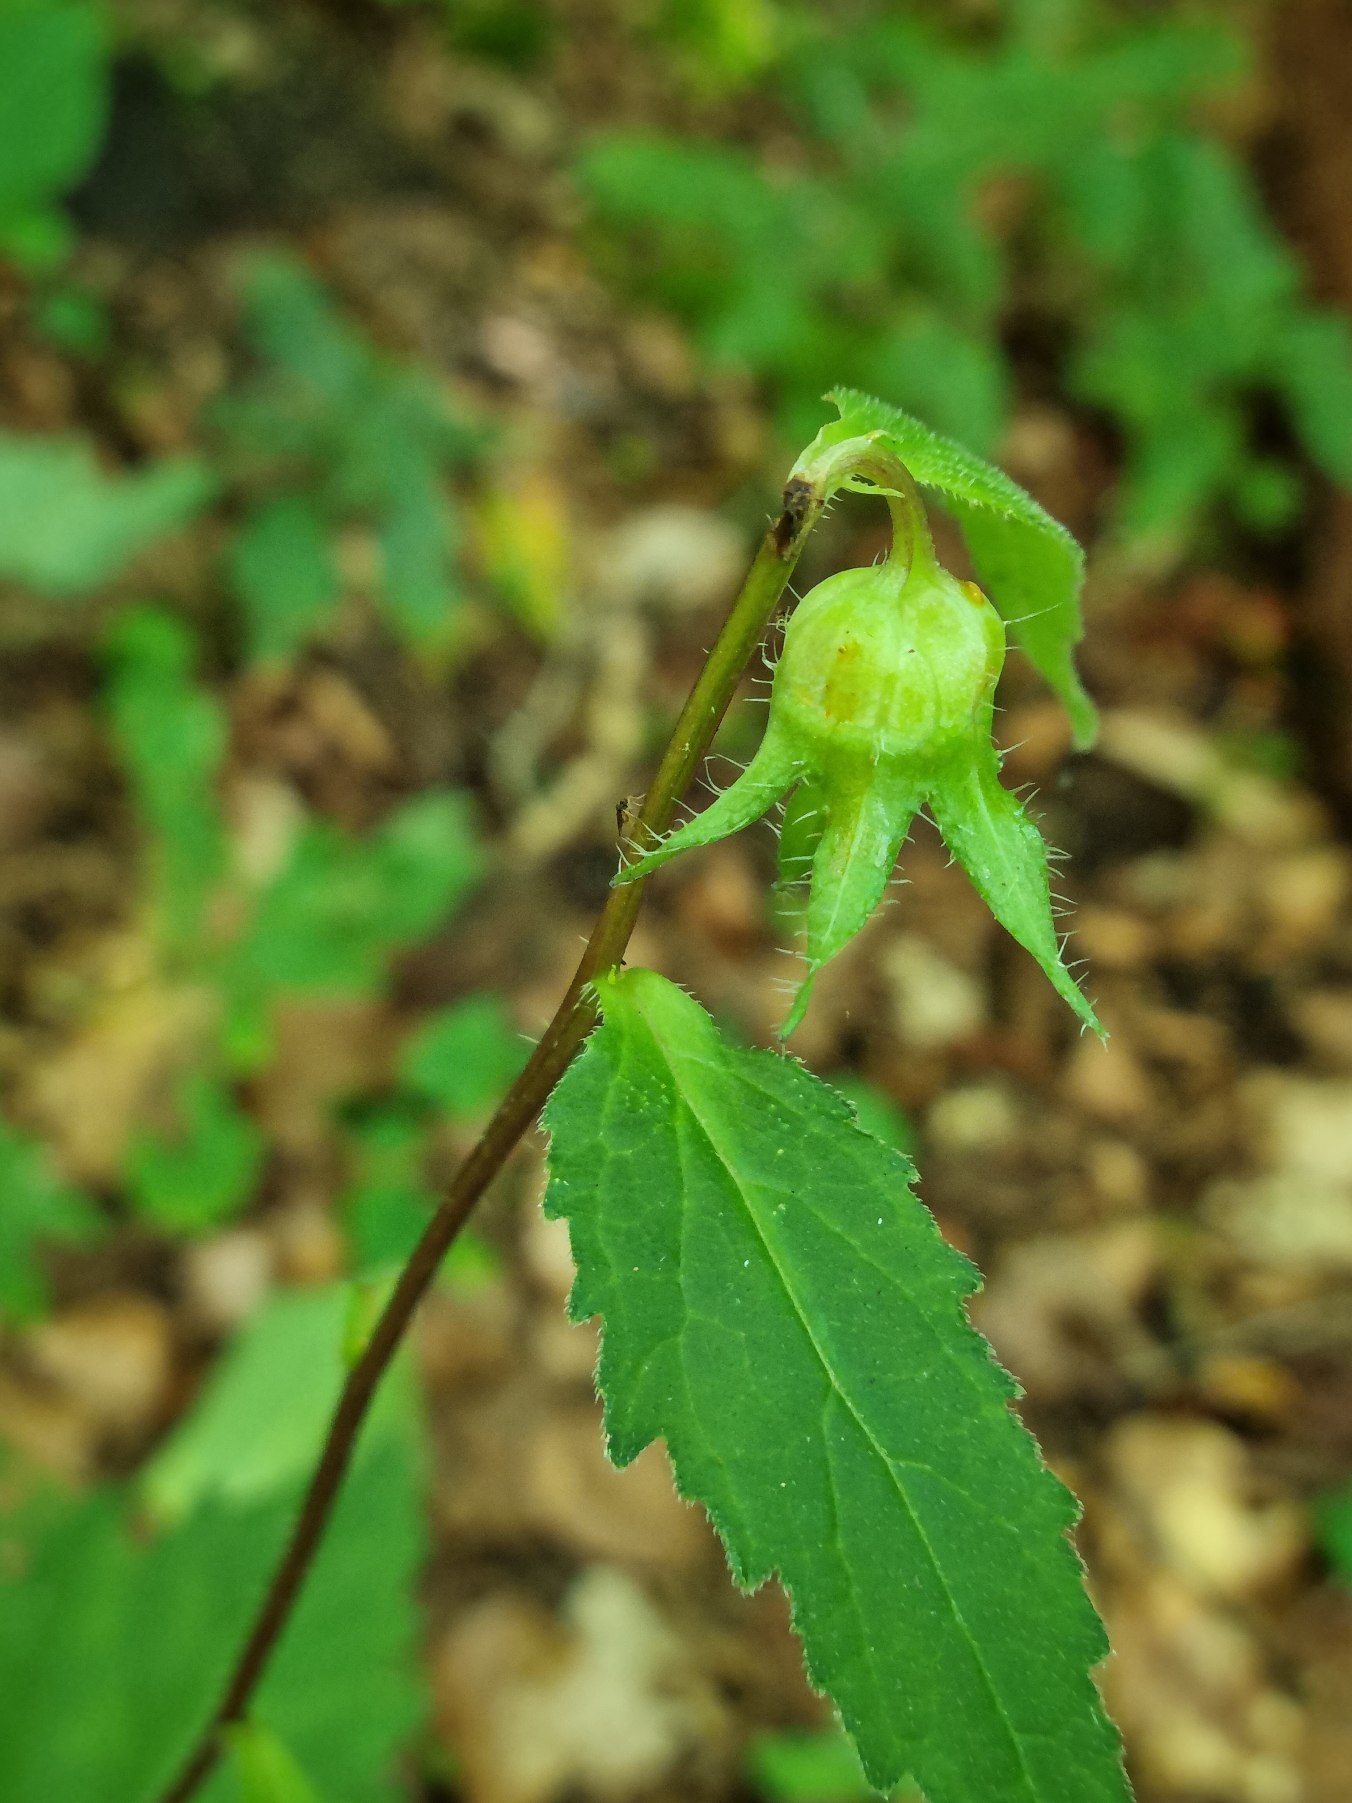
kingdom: Plantae
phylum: Tracheophyta
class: Magnoliopsida
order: Asterales
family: Campanulaceae
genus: Campanula
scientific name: Campanula trachelium
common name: Nælde-klokke
